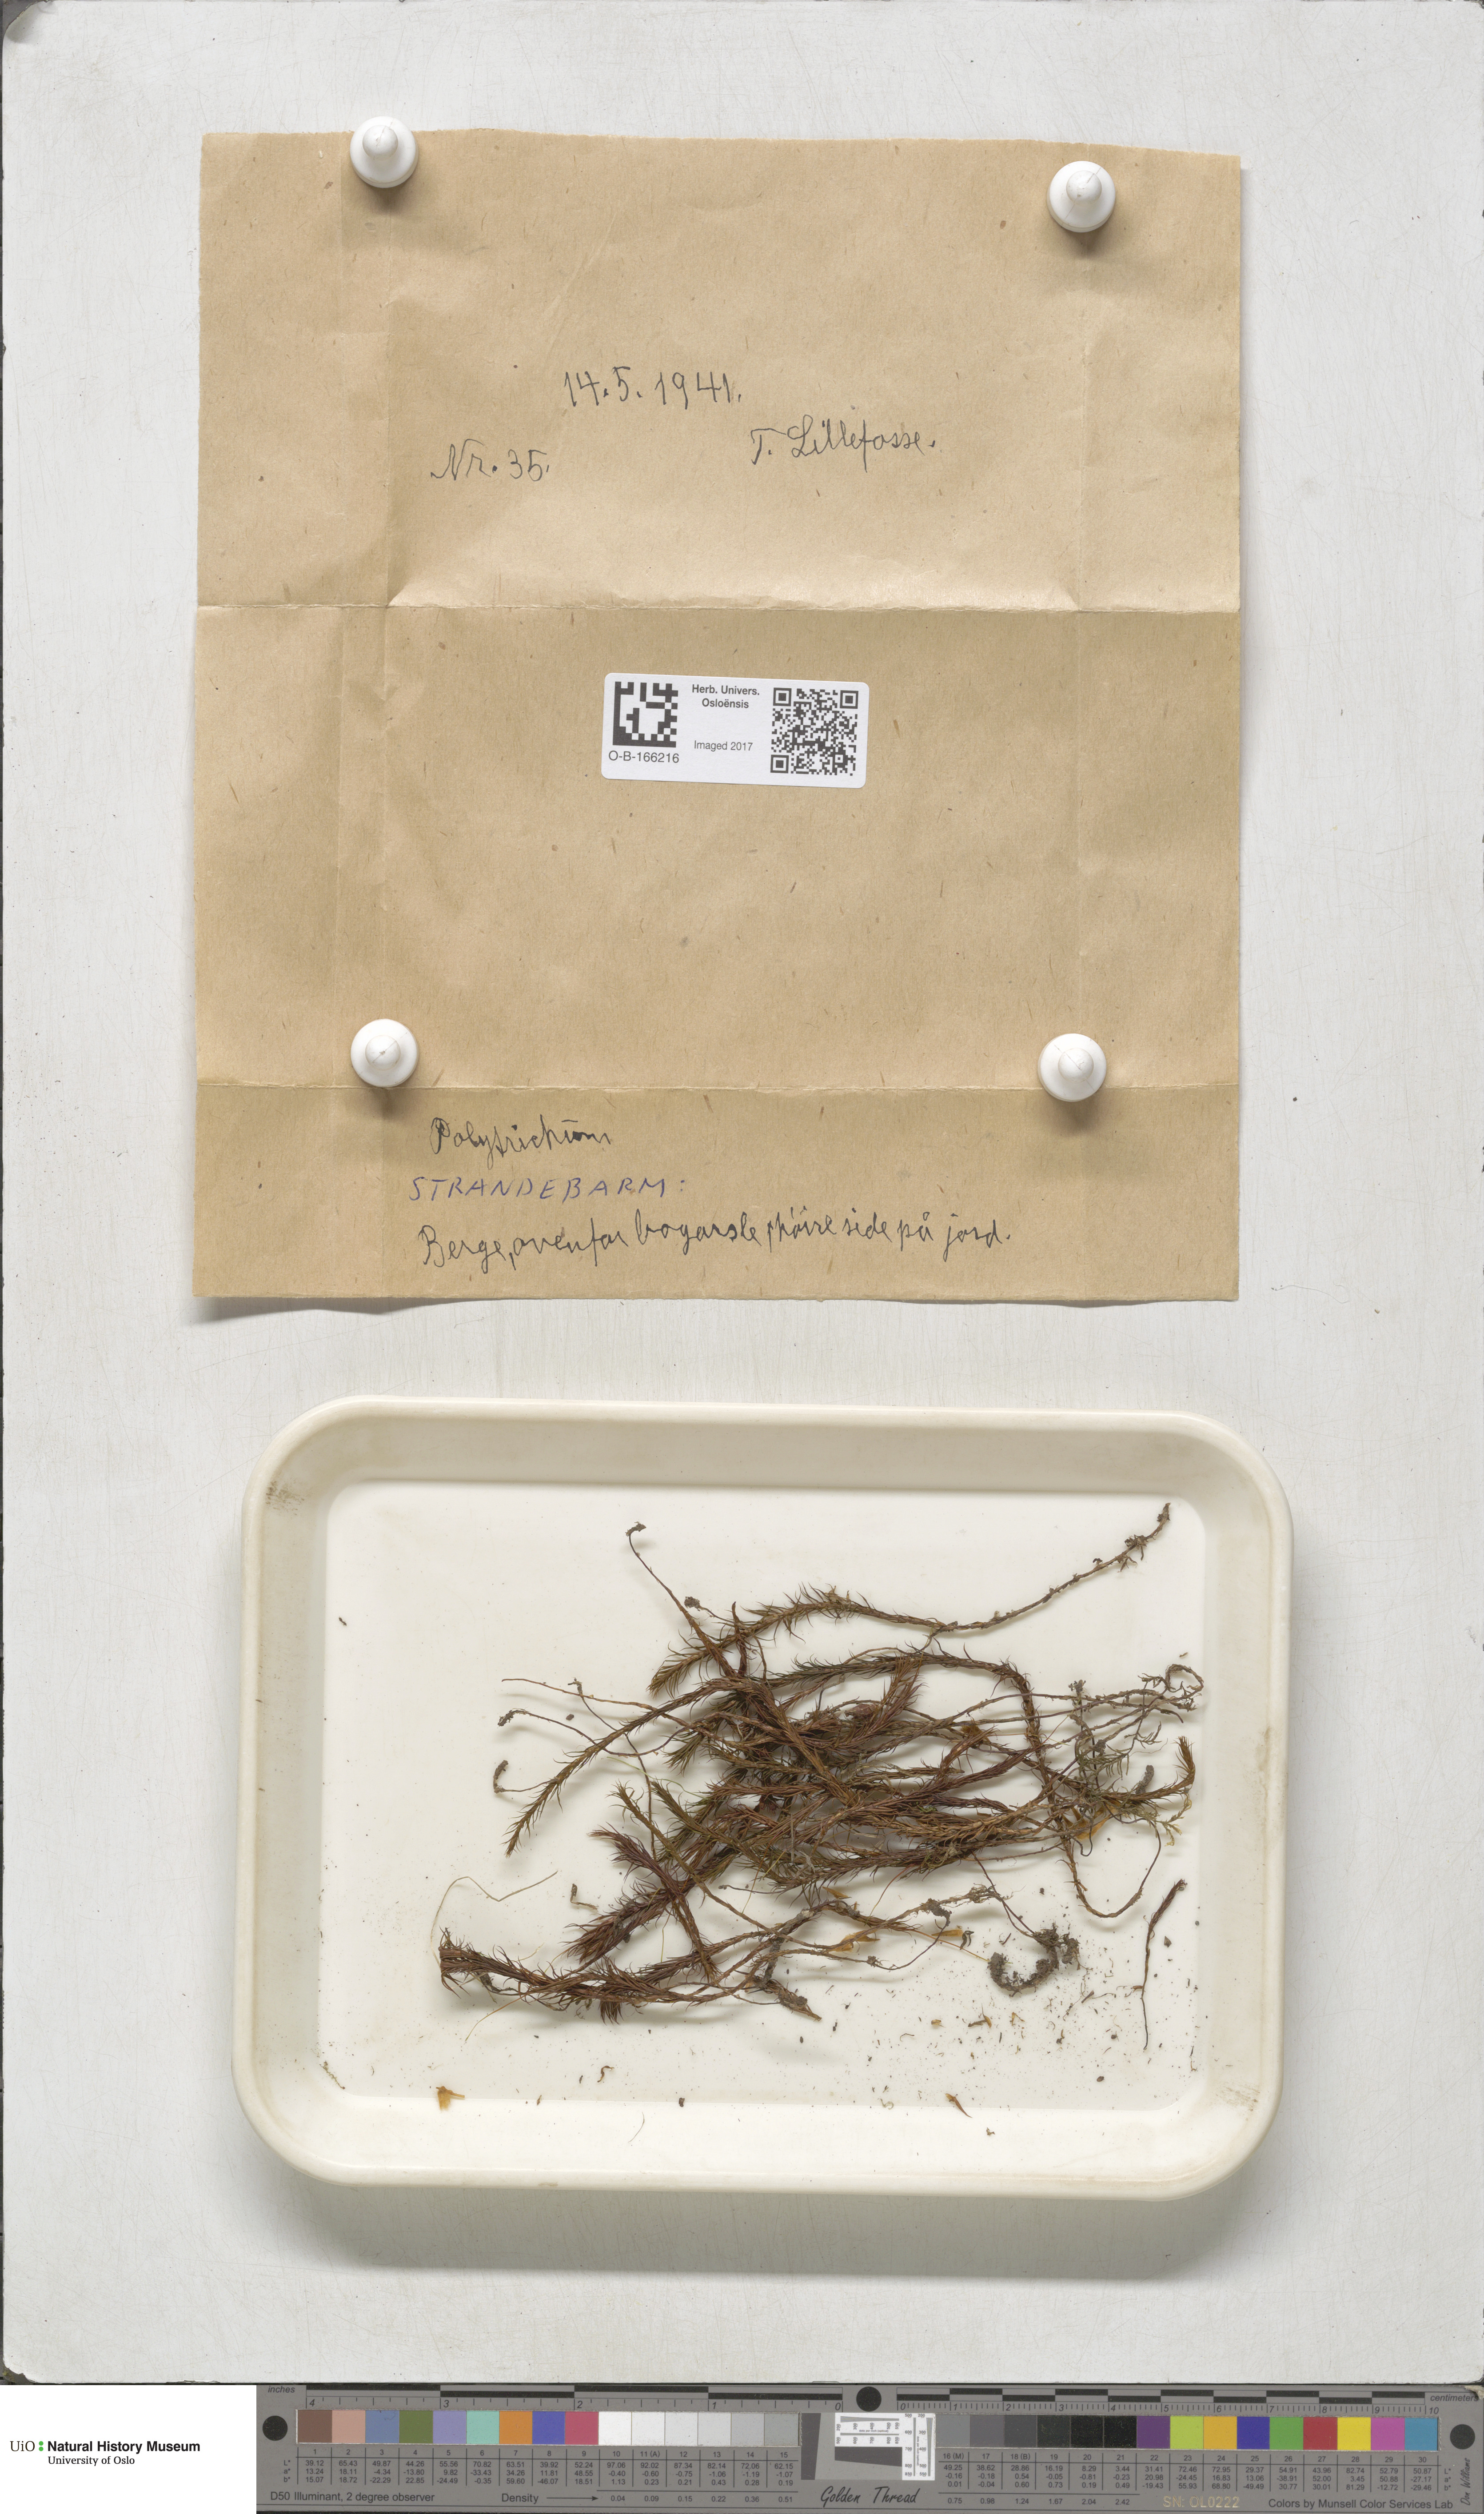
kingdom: Plantae
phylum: Bryophyta
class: Polytrichopsida
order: Polytrichales
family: Polytrichaceae
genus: Polytrichum
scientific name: Polytrichum
